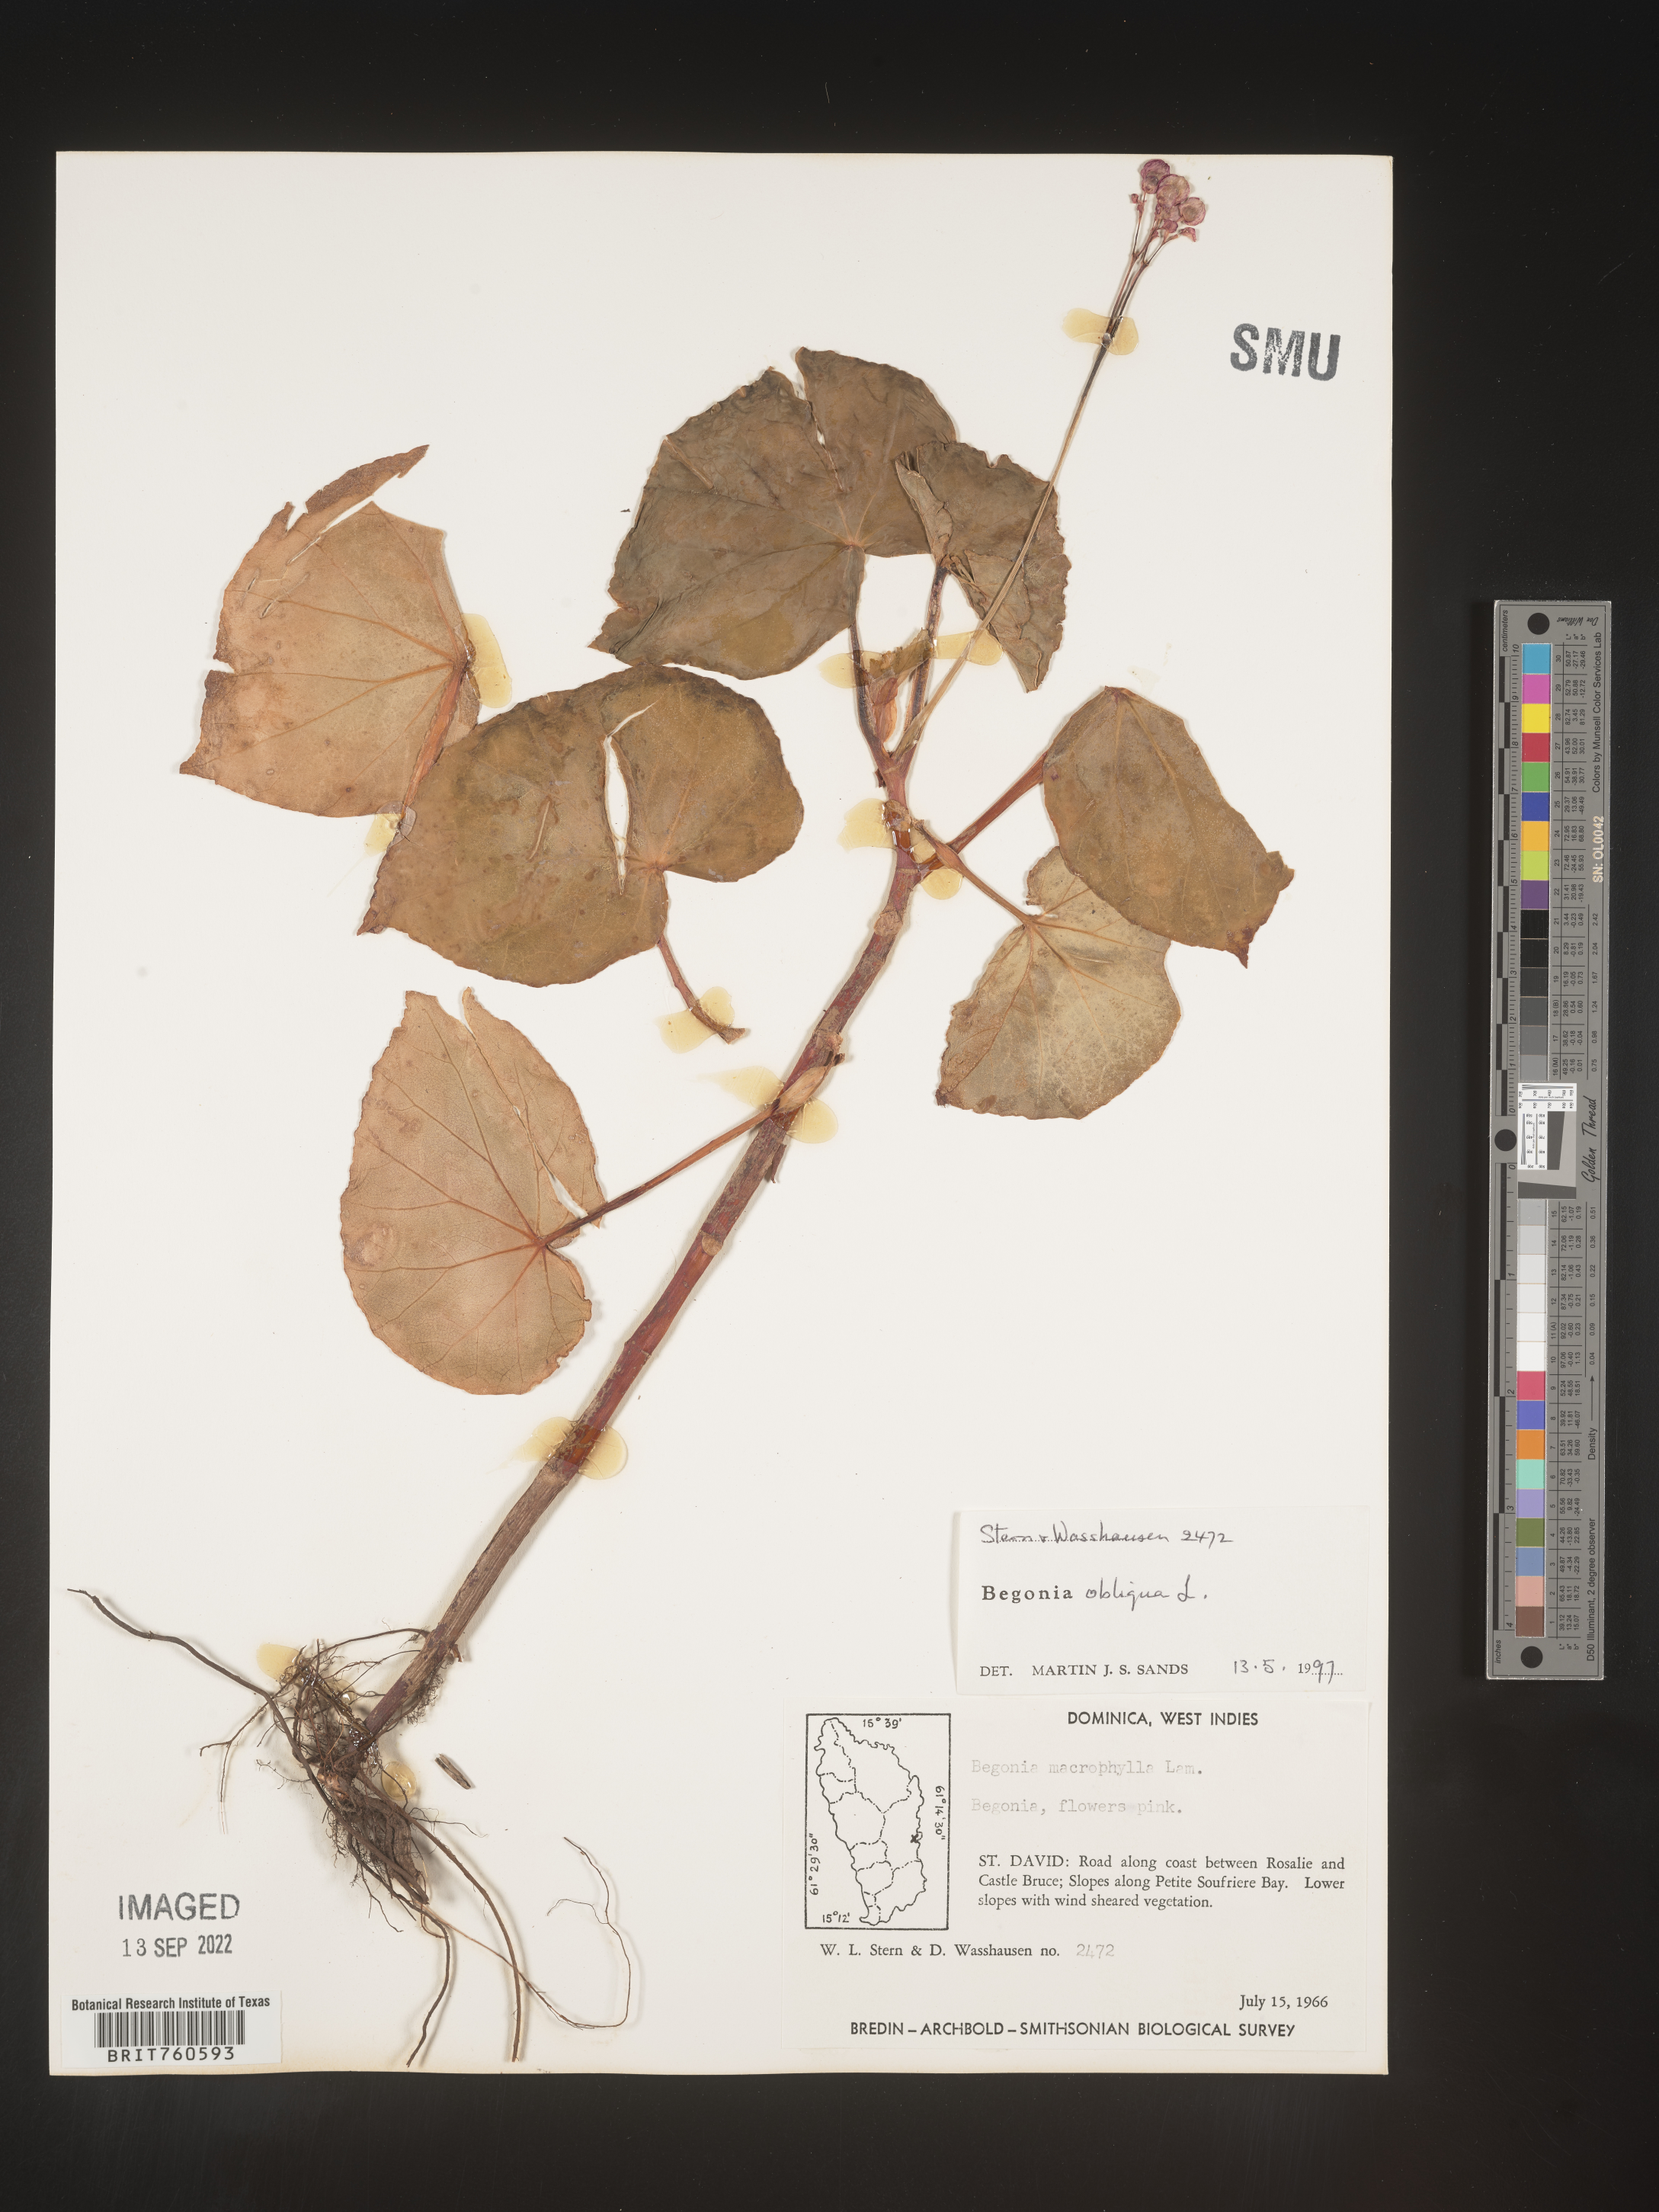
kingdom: Plantae
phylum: Tracheophyta
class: Magnoliopsida
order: Cucurbitales
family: Begoniaceae
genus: Begonia
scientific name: Begonia
